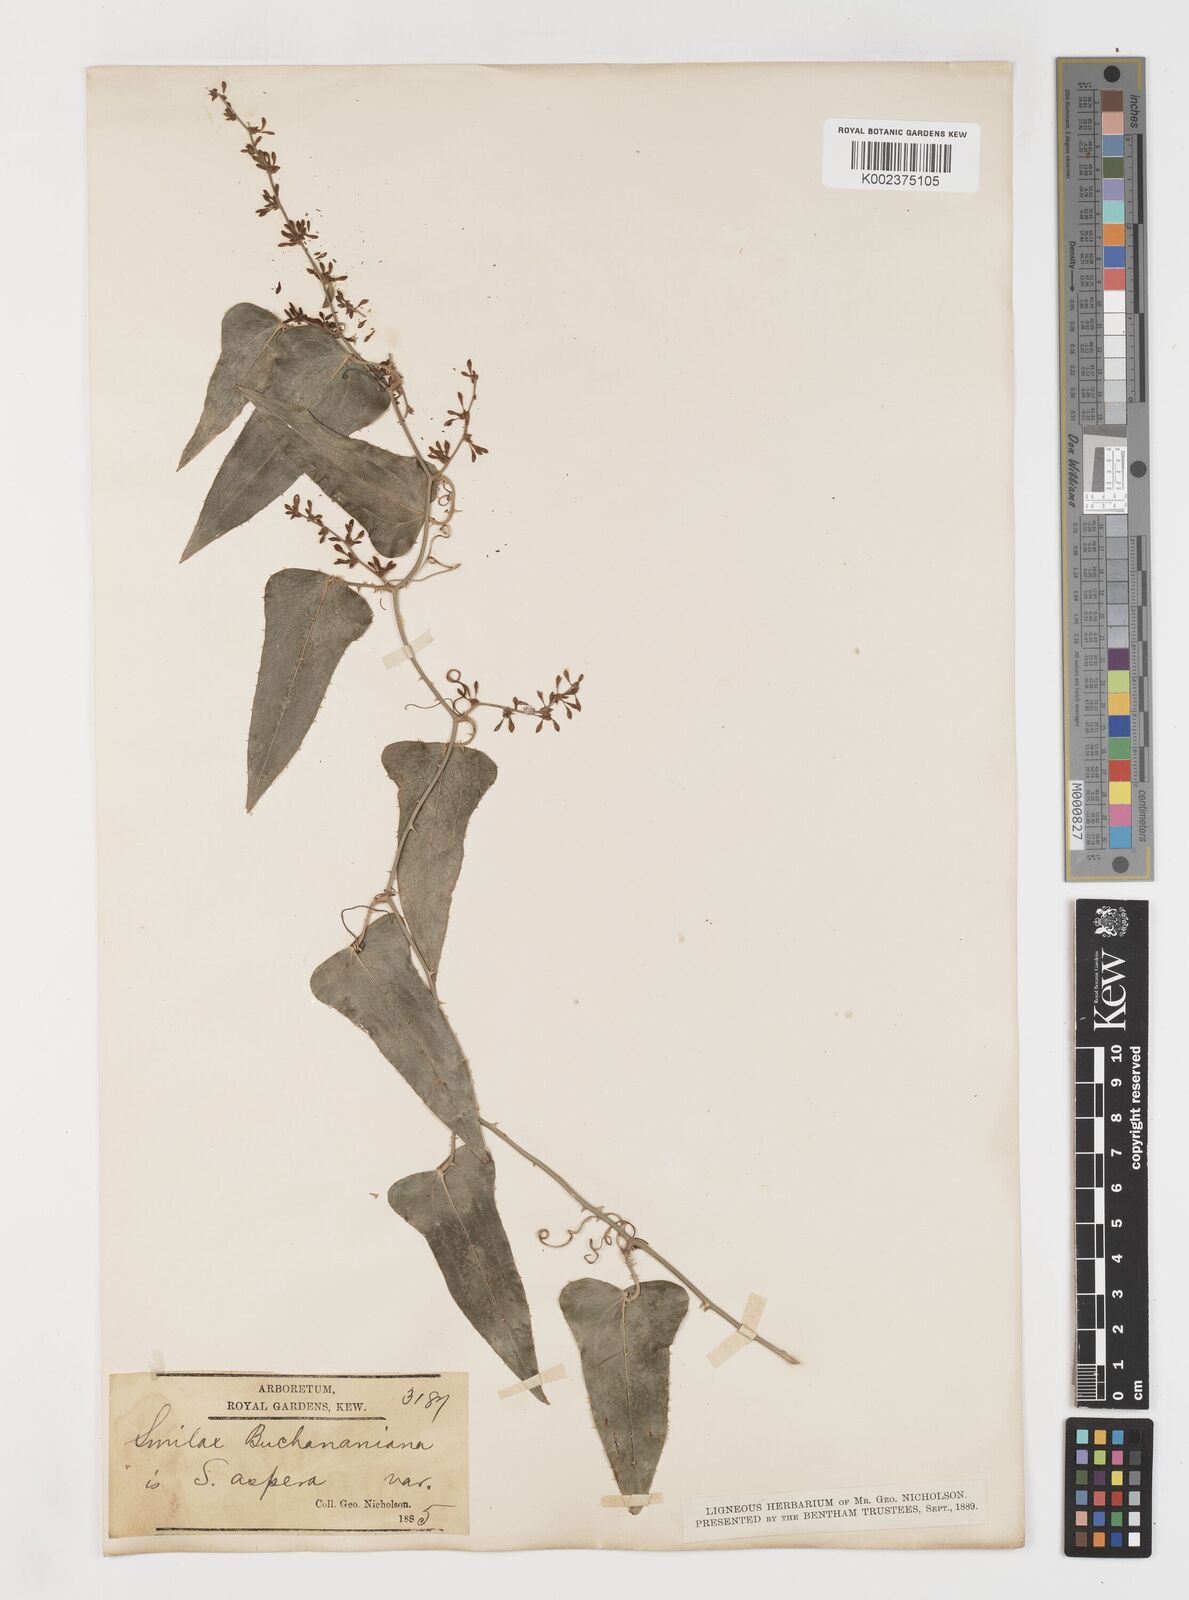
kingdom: Plantae
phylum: Tracheophyta
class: Liliopsida
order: Liliales
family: Smilacaceae
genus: Smilax
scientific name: Smilax
